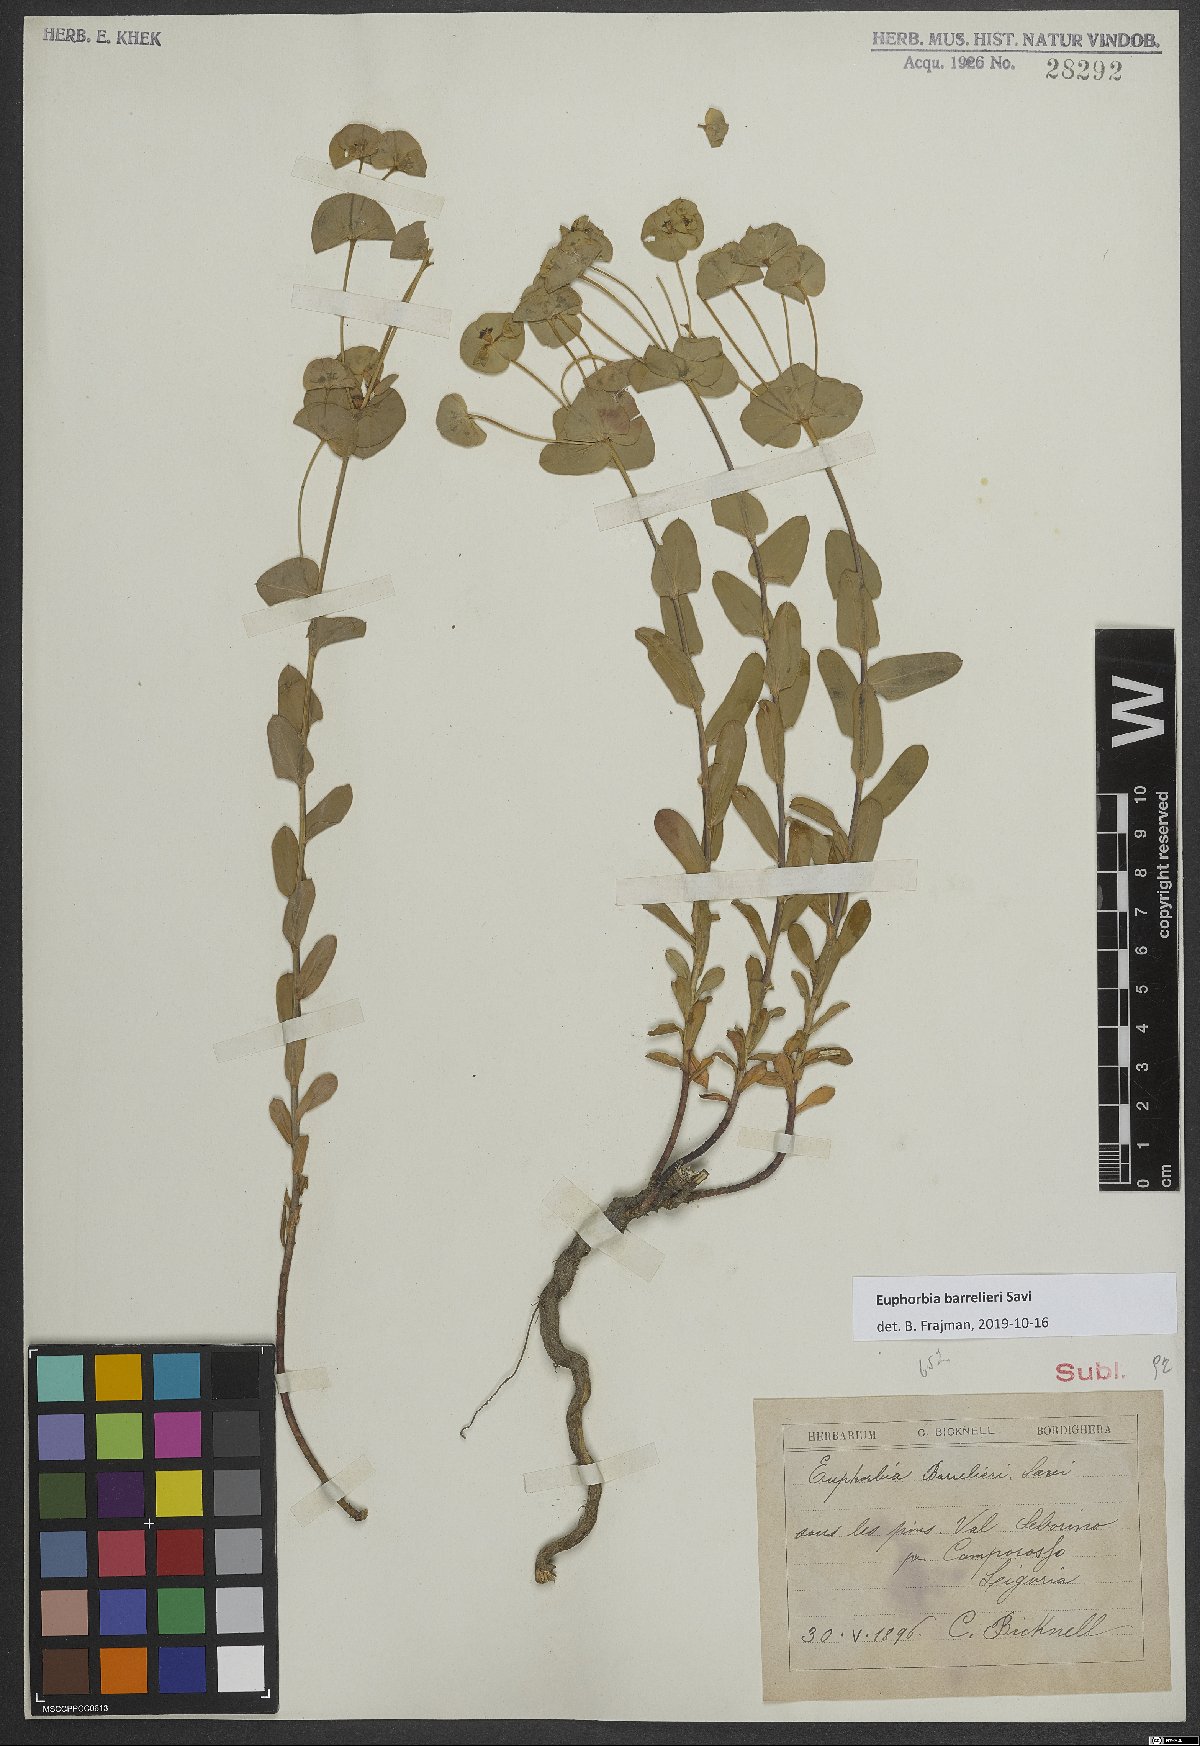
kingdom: Plantae
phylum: Tracheophyta
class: Magnoliopsida
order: Malpighiales
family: Euphorbiaceae
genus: Euphorbia
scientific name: Euphorbia
